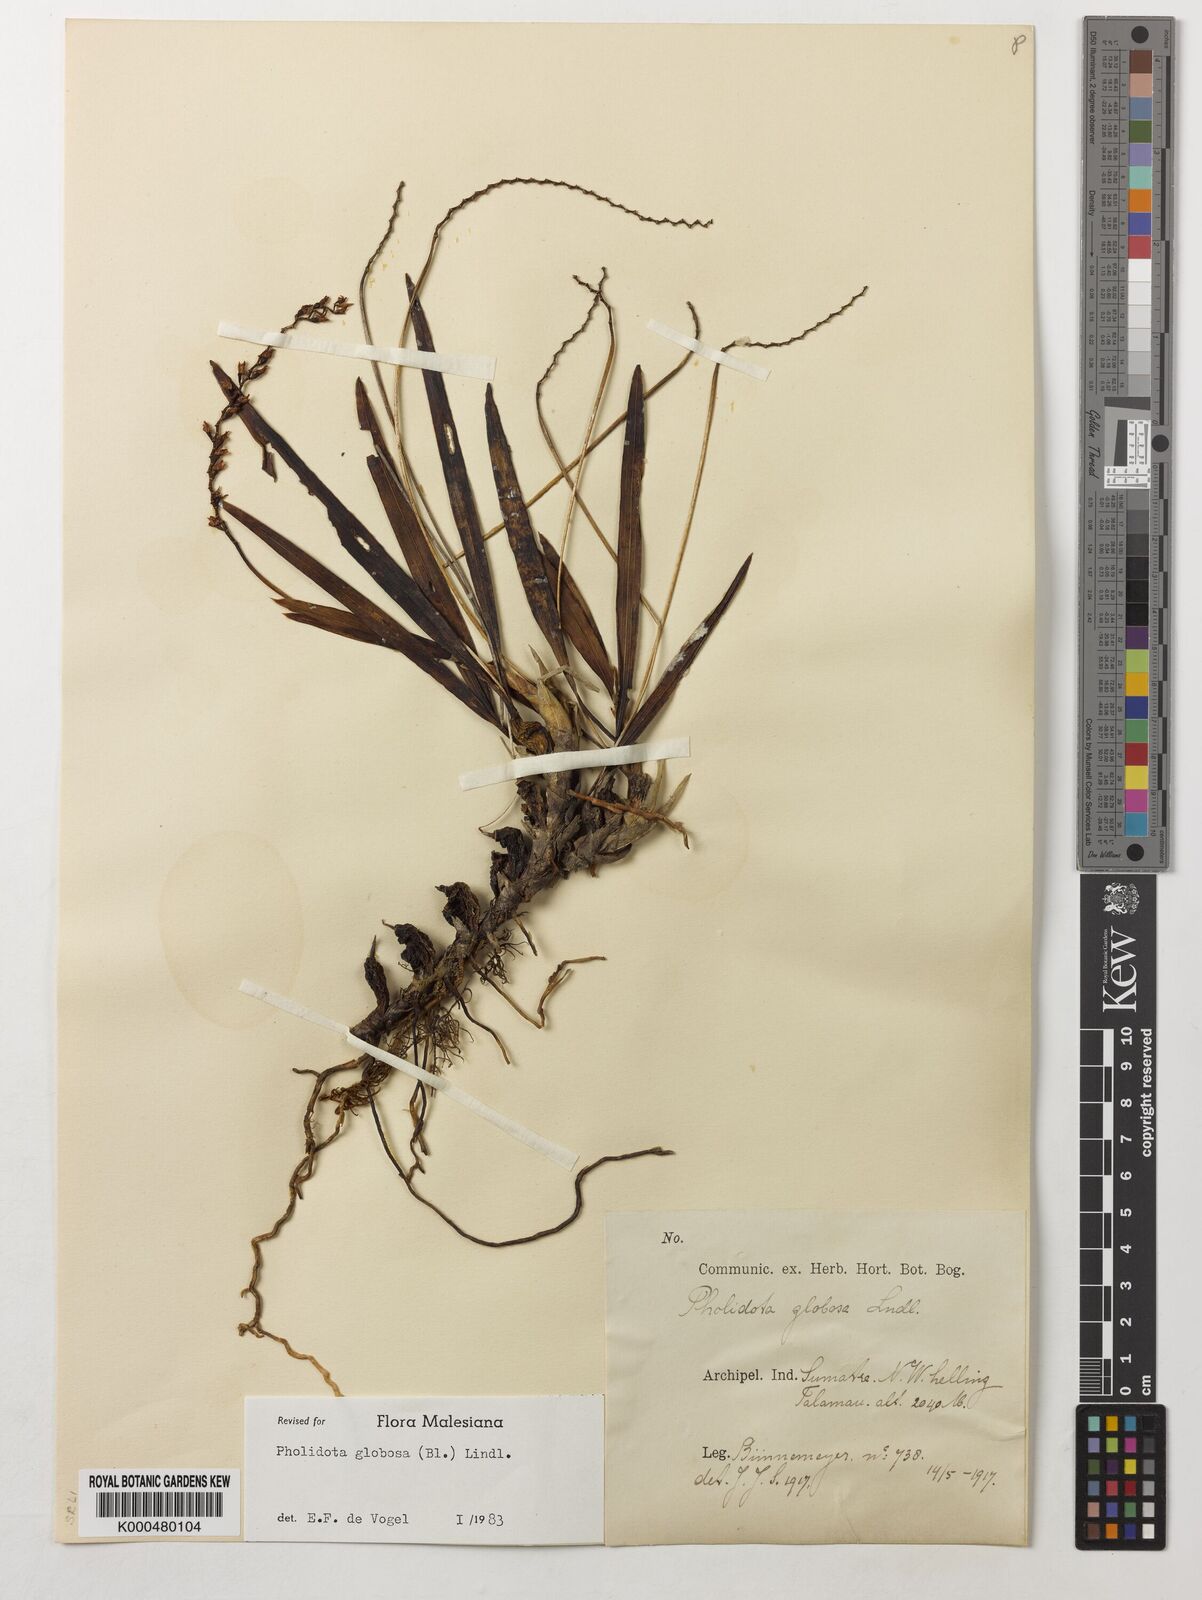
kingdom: Plantae
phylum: Tracheophyta
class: Liliopsida
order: Asparagales
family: Orchidaceae
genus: Coelogyne
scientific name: Coelogyne globosa
